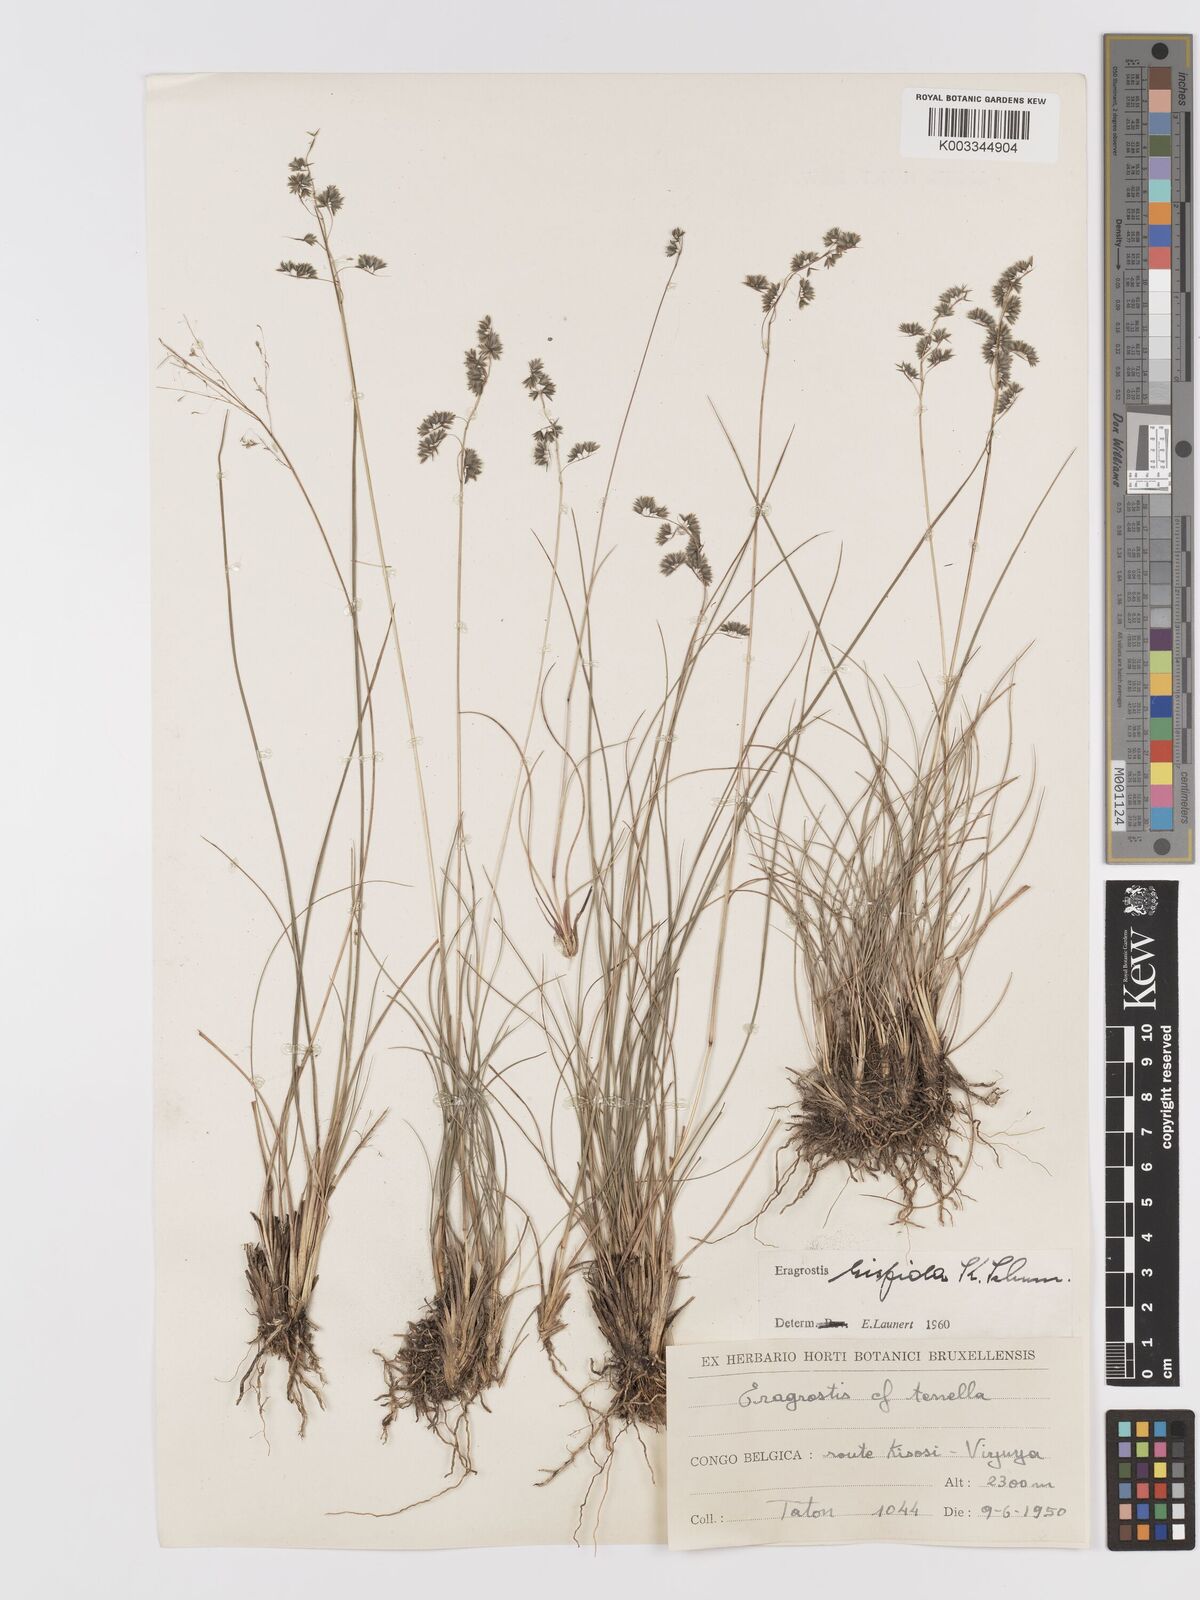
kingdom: Plantae
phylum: Tracheophyta
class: Liliopsida
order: Poales
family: Poaceae
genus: Eragrostis
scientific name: Eragrostis hispida
